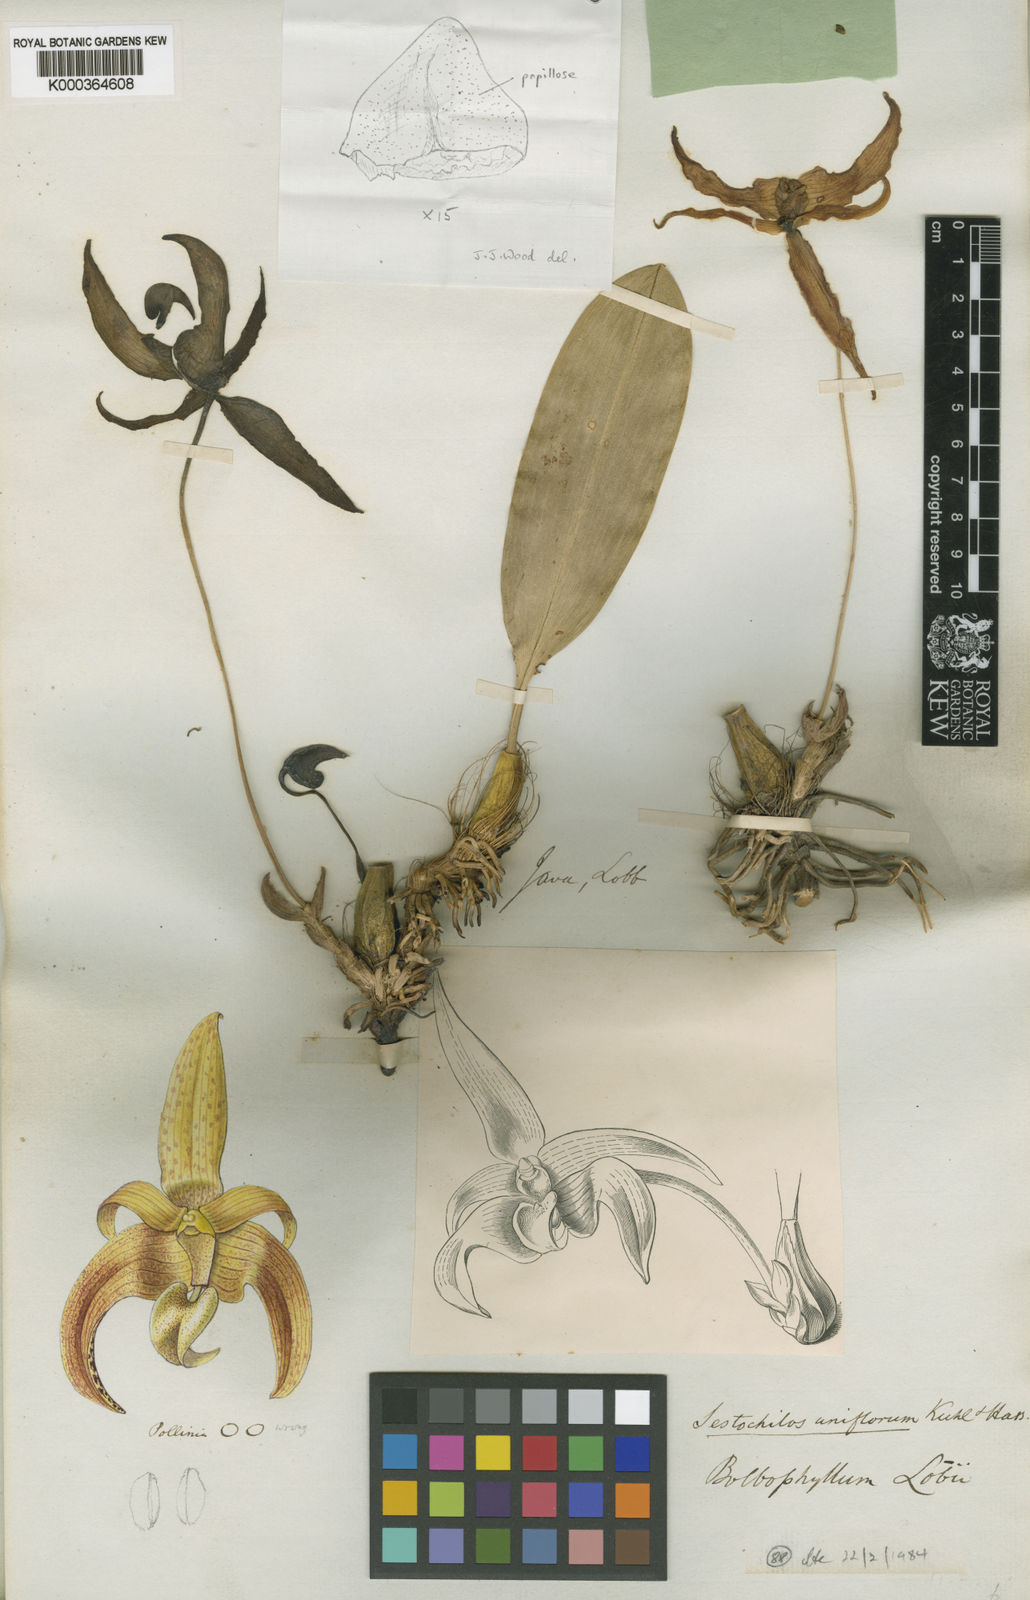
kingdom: Plantae
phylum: Tracheophyta
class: Liliopsida
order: Asparagales
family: Orchidaceae
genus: Bulbophyllum
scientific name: Bulbophyllum lobbii
